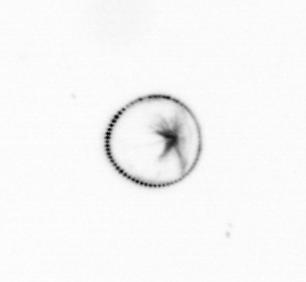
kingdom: Chromista
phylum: Myzozoa
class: Dinophyceae
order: Noctilucales
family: Noctilucaceae
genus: Noctiluca
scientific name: Noctiluca scintillans
